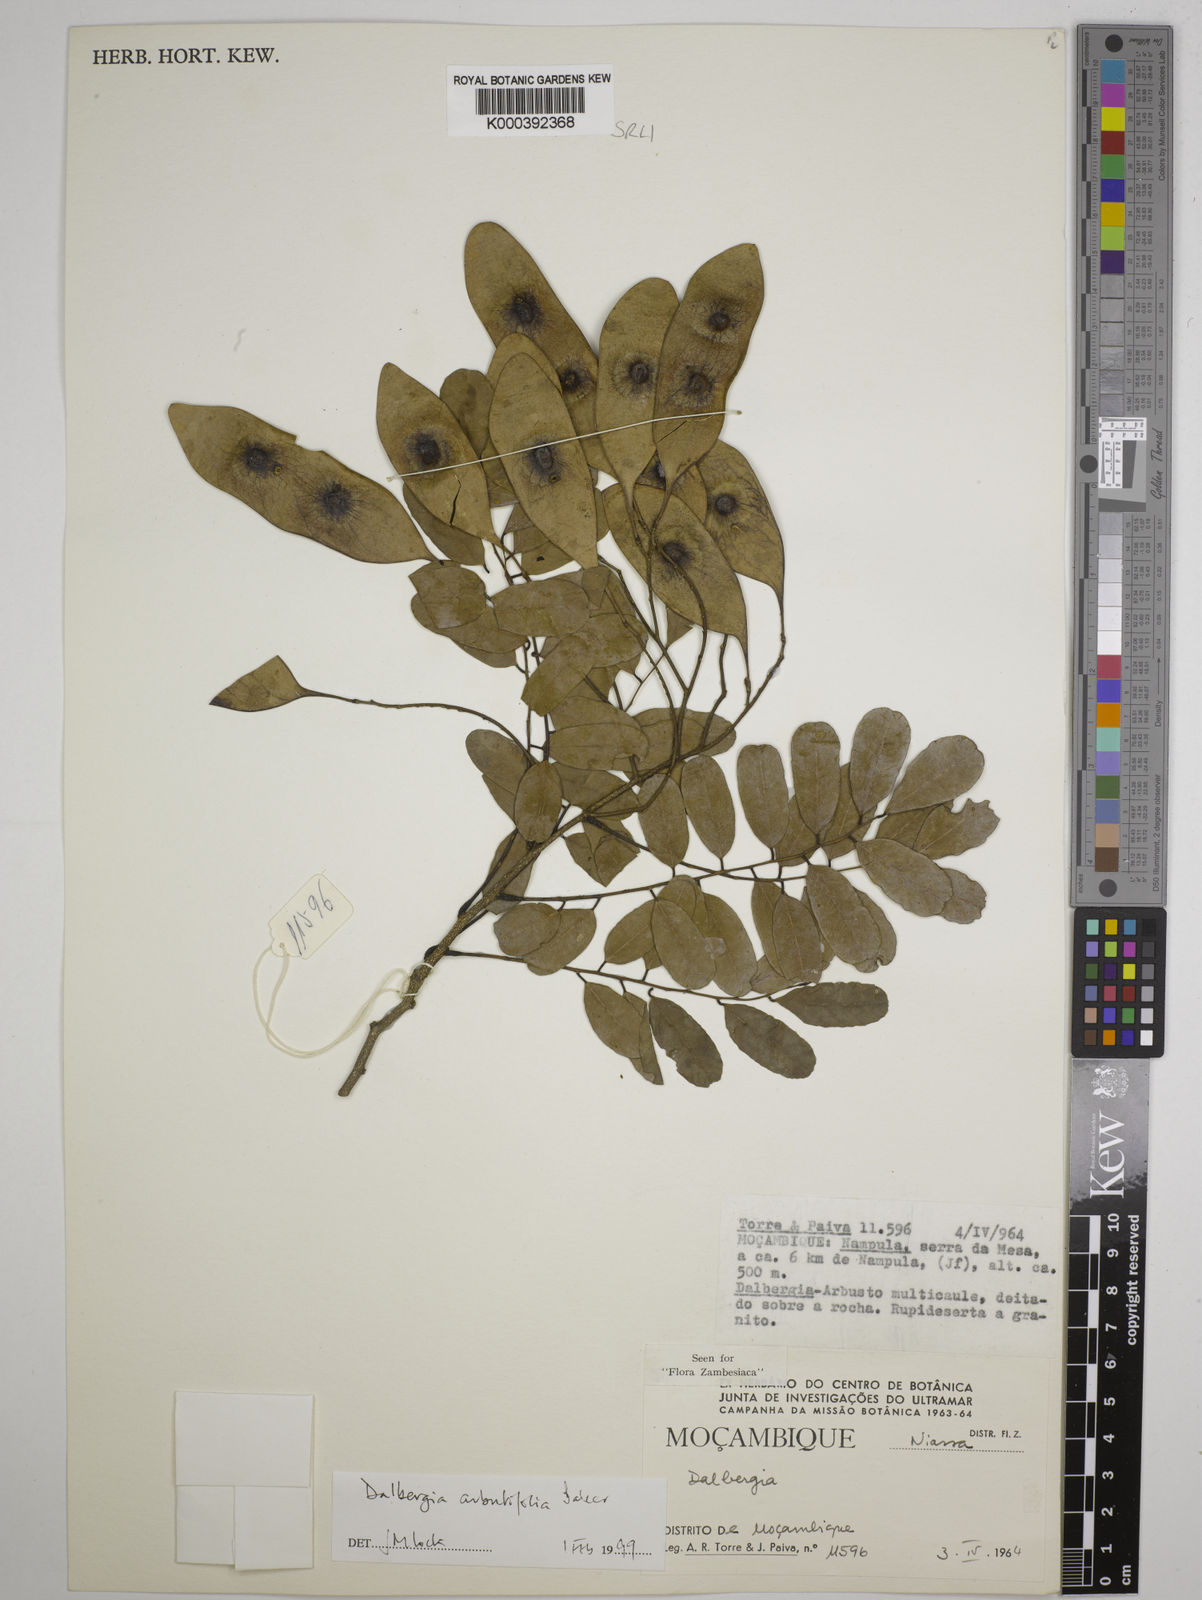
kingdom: Plantae
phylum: Tracheophyta
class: Magnoliopsida
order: Fabales
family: Fabaceae
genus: Dalbergia
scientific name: Dalbergia arbutifolia
